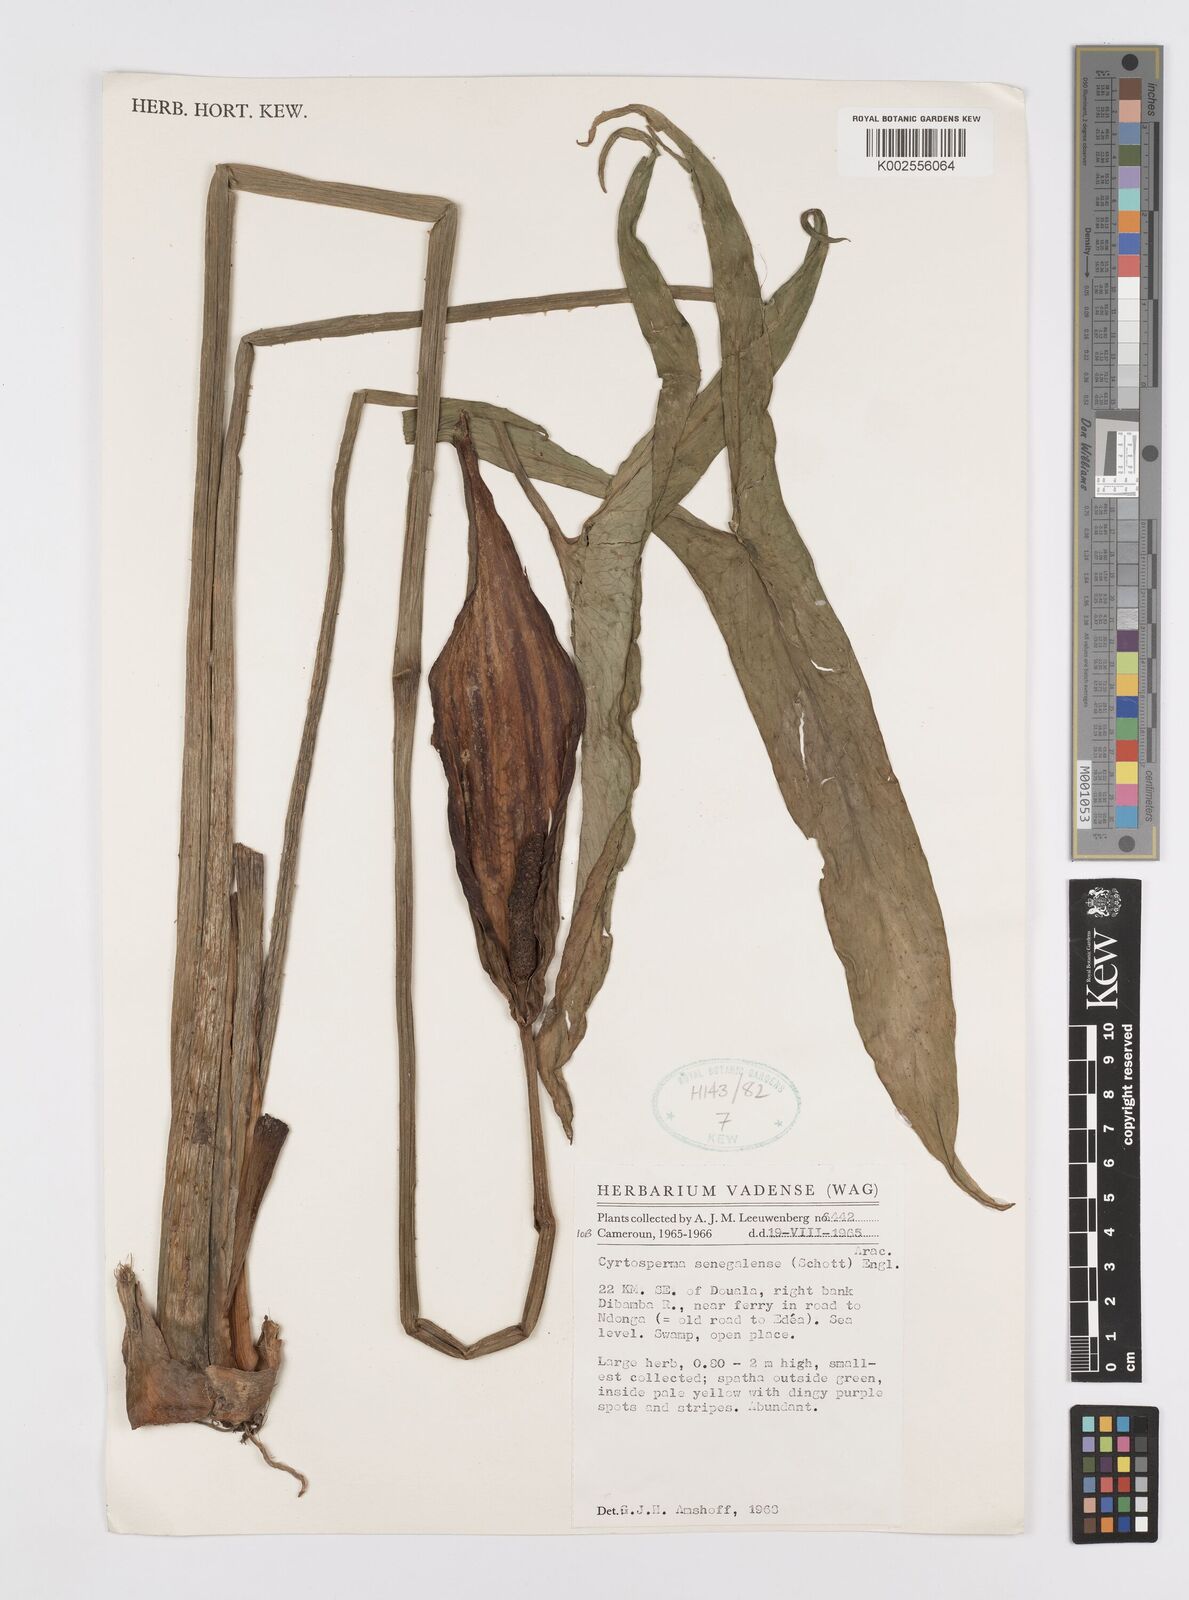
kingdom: Plantae
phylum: Tracheophyta
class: Liliopsida
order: Alismatales
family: Araceae
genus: Lasimorpha
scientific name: Lasimorpha senegalensis
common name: Swamp arum
